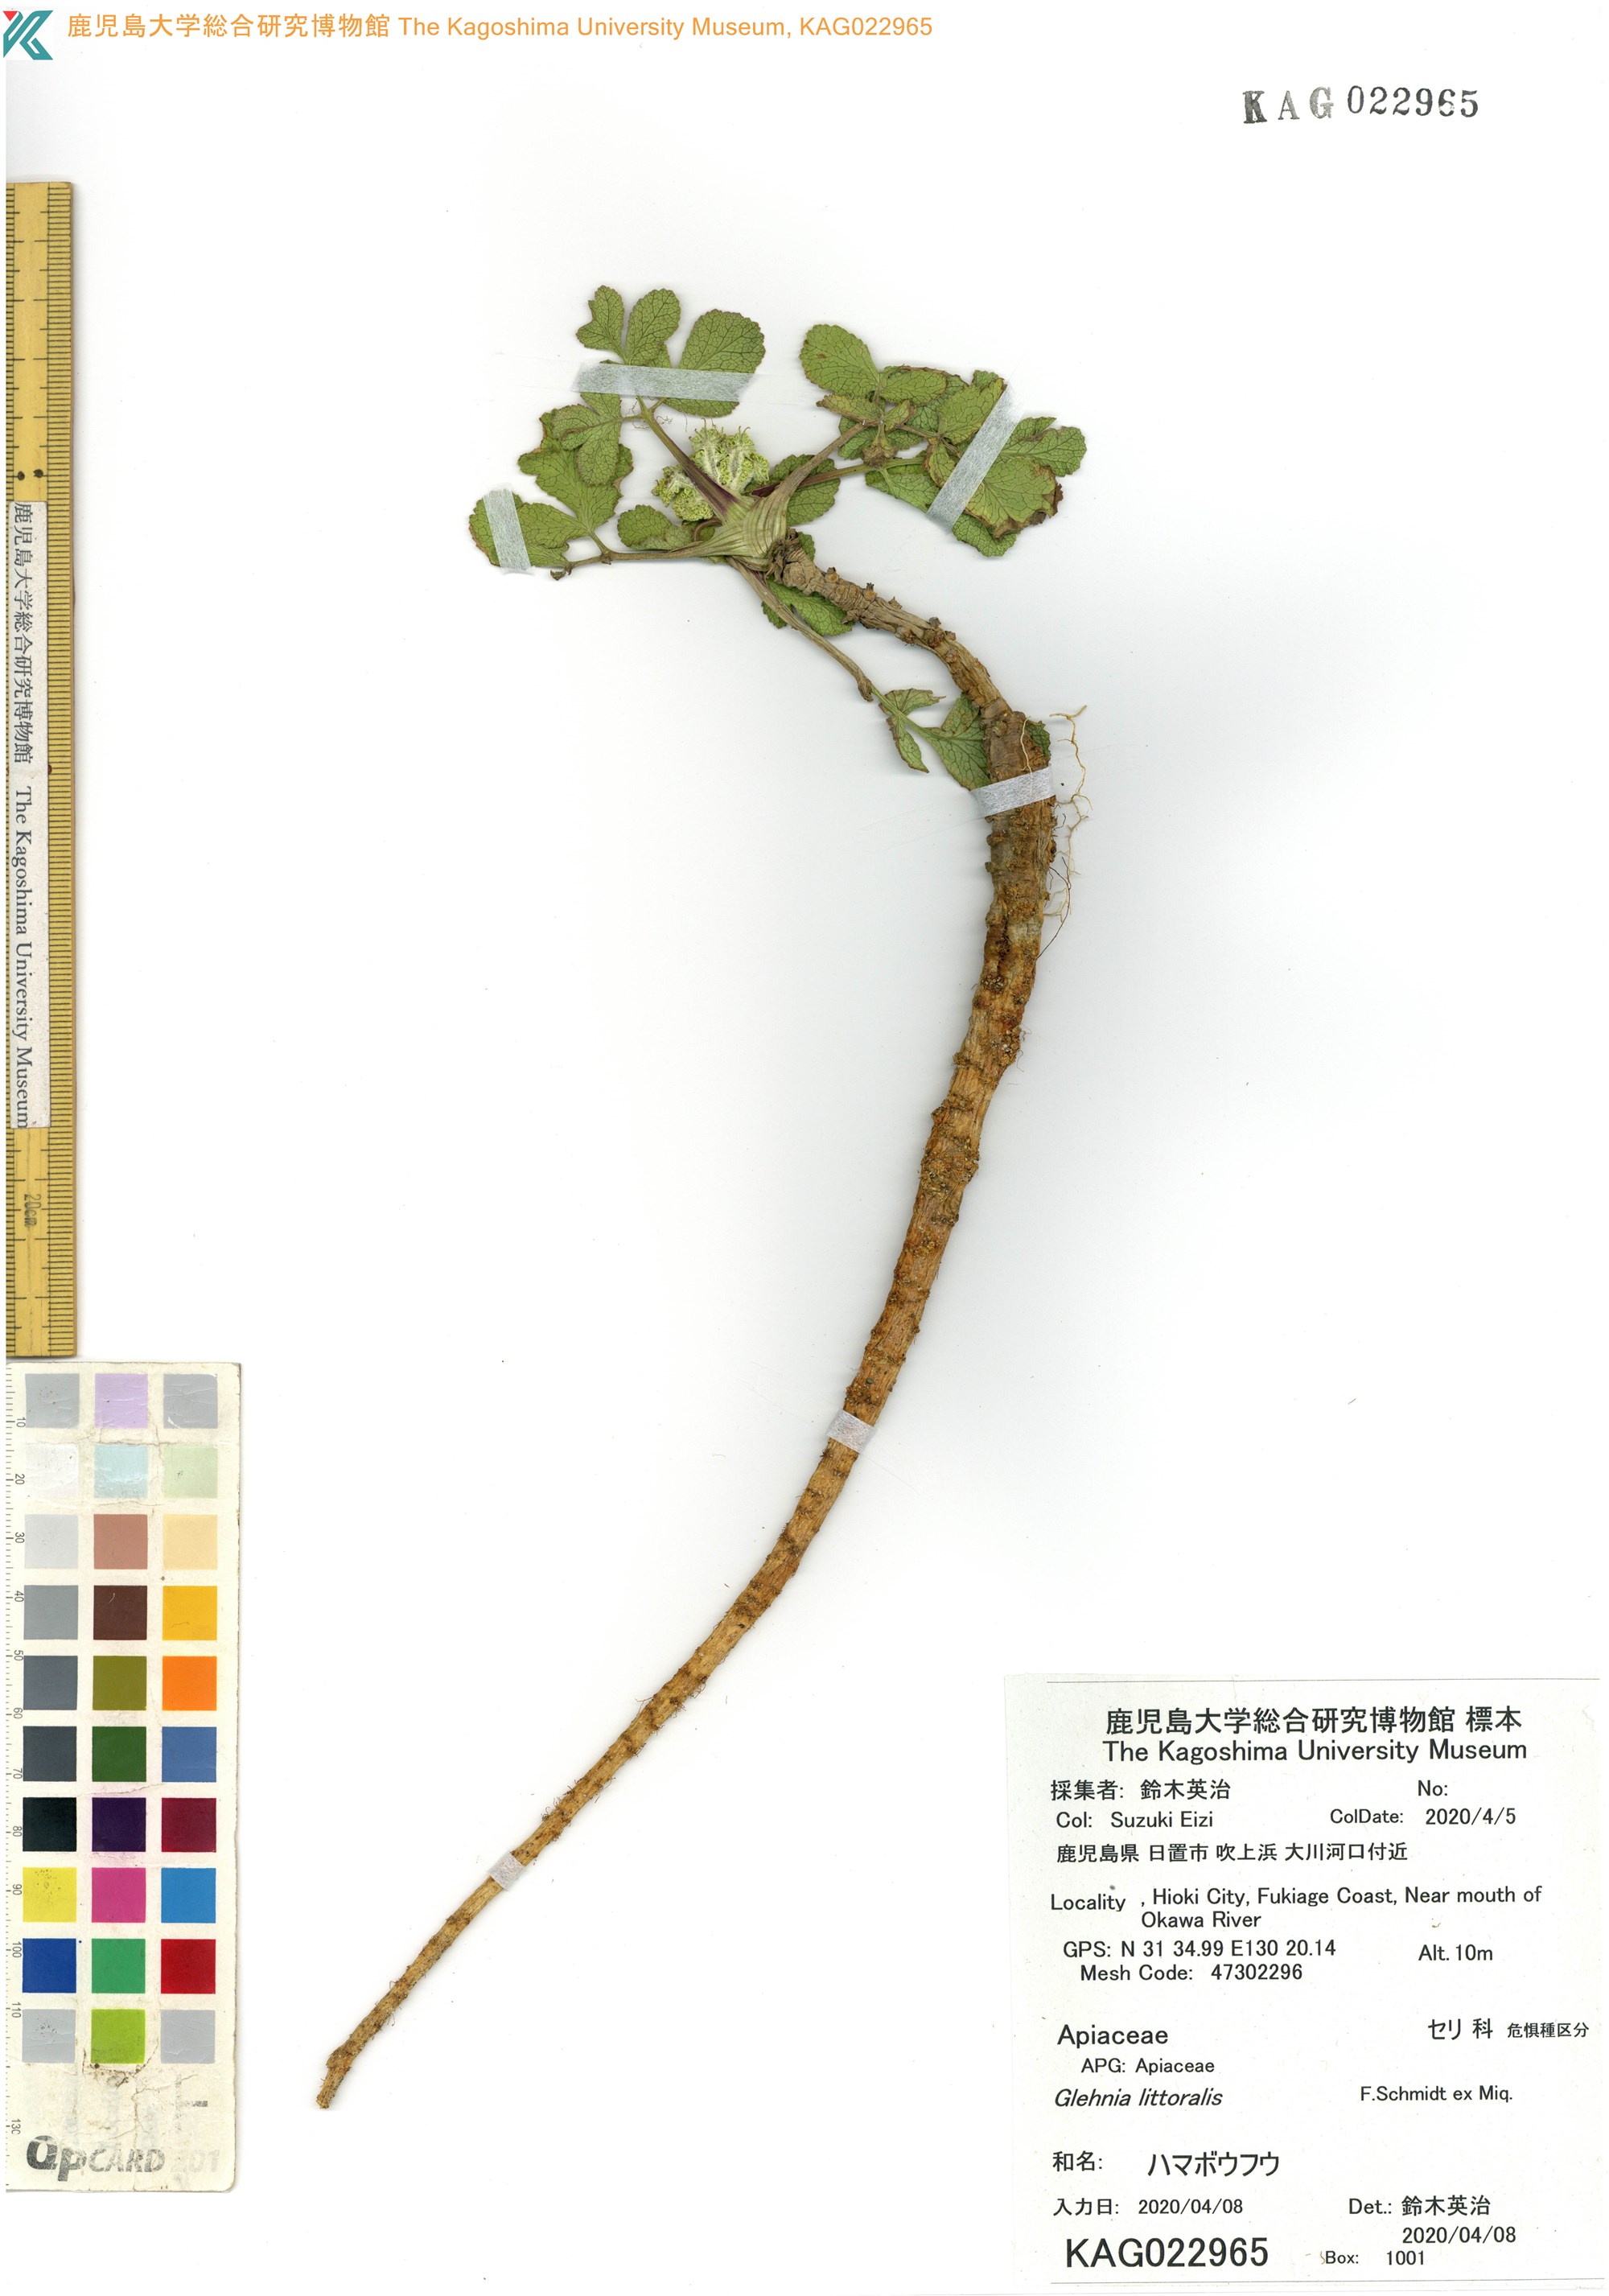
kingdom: Plantae
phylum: Tracheophyta
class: Magnoliopsida
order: Apiales
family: Apiaceae
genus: Glehnia
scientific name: Glehnia littoralis
